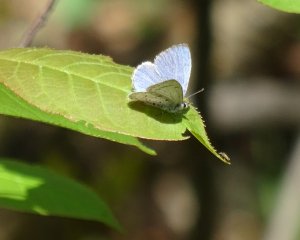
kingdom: Animalia
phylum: Arthropoda
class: Insecta
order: Lepidoptera
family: Lycaenidae
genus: Celastrina
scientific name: Celastrina lucia
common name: Northern Spring Azure
